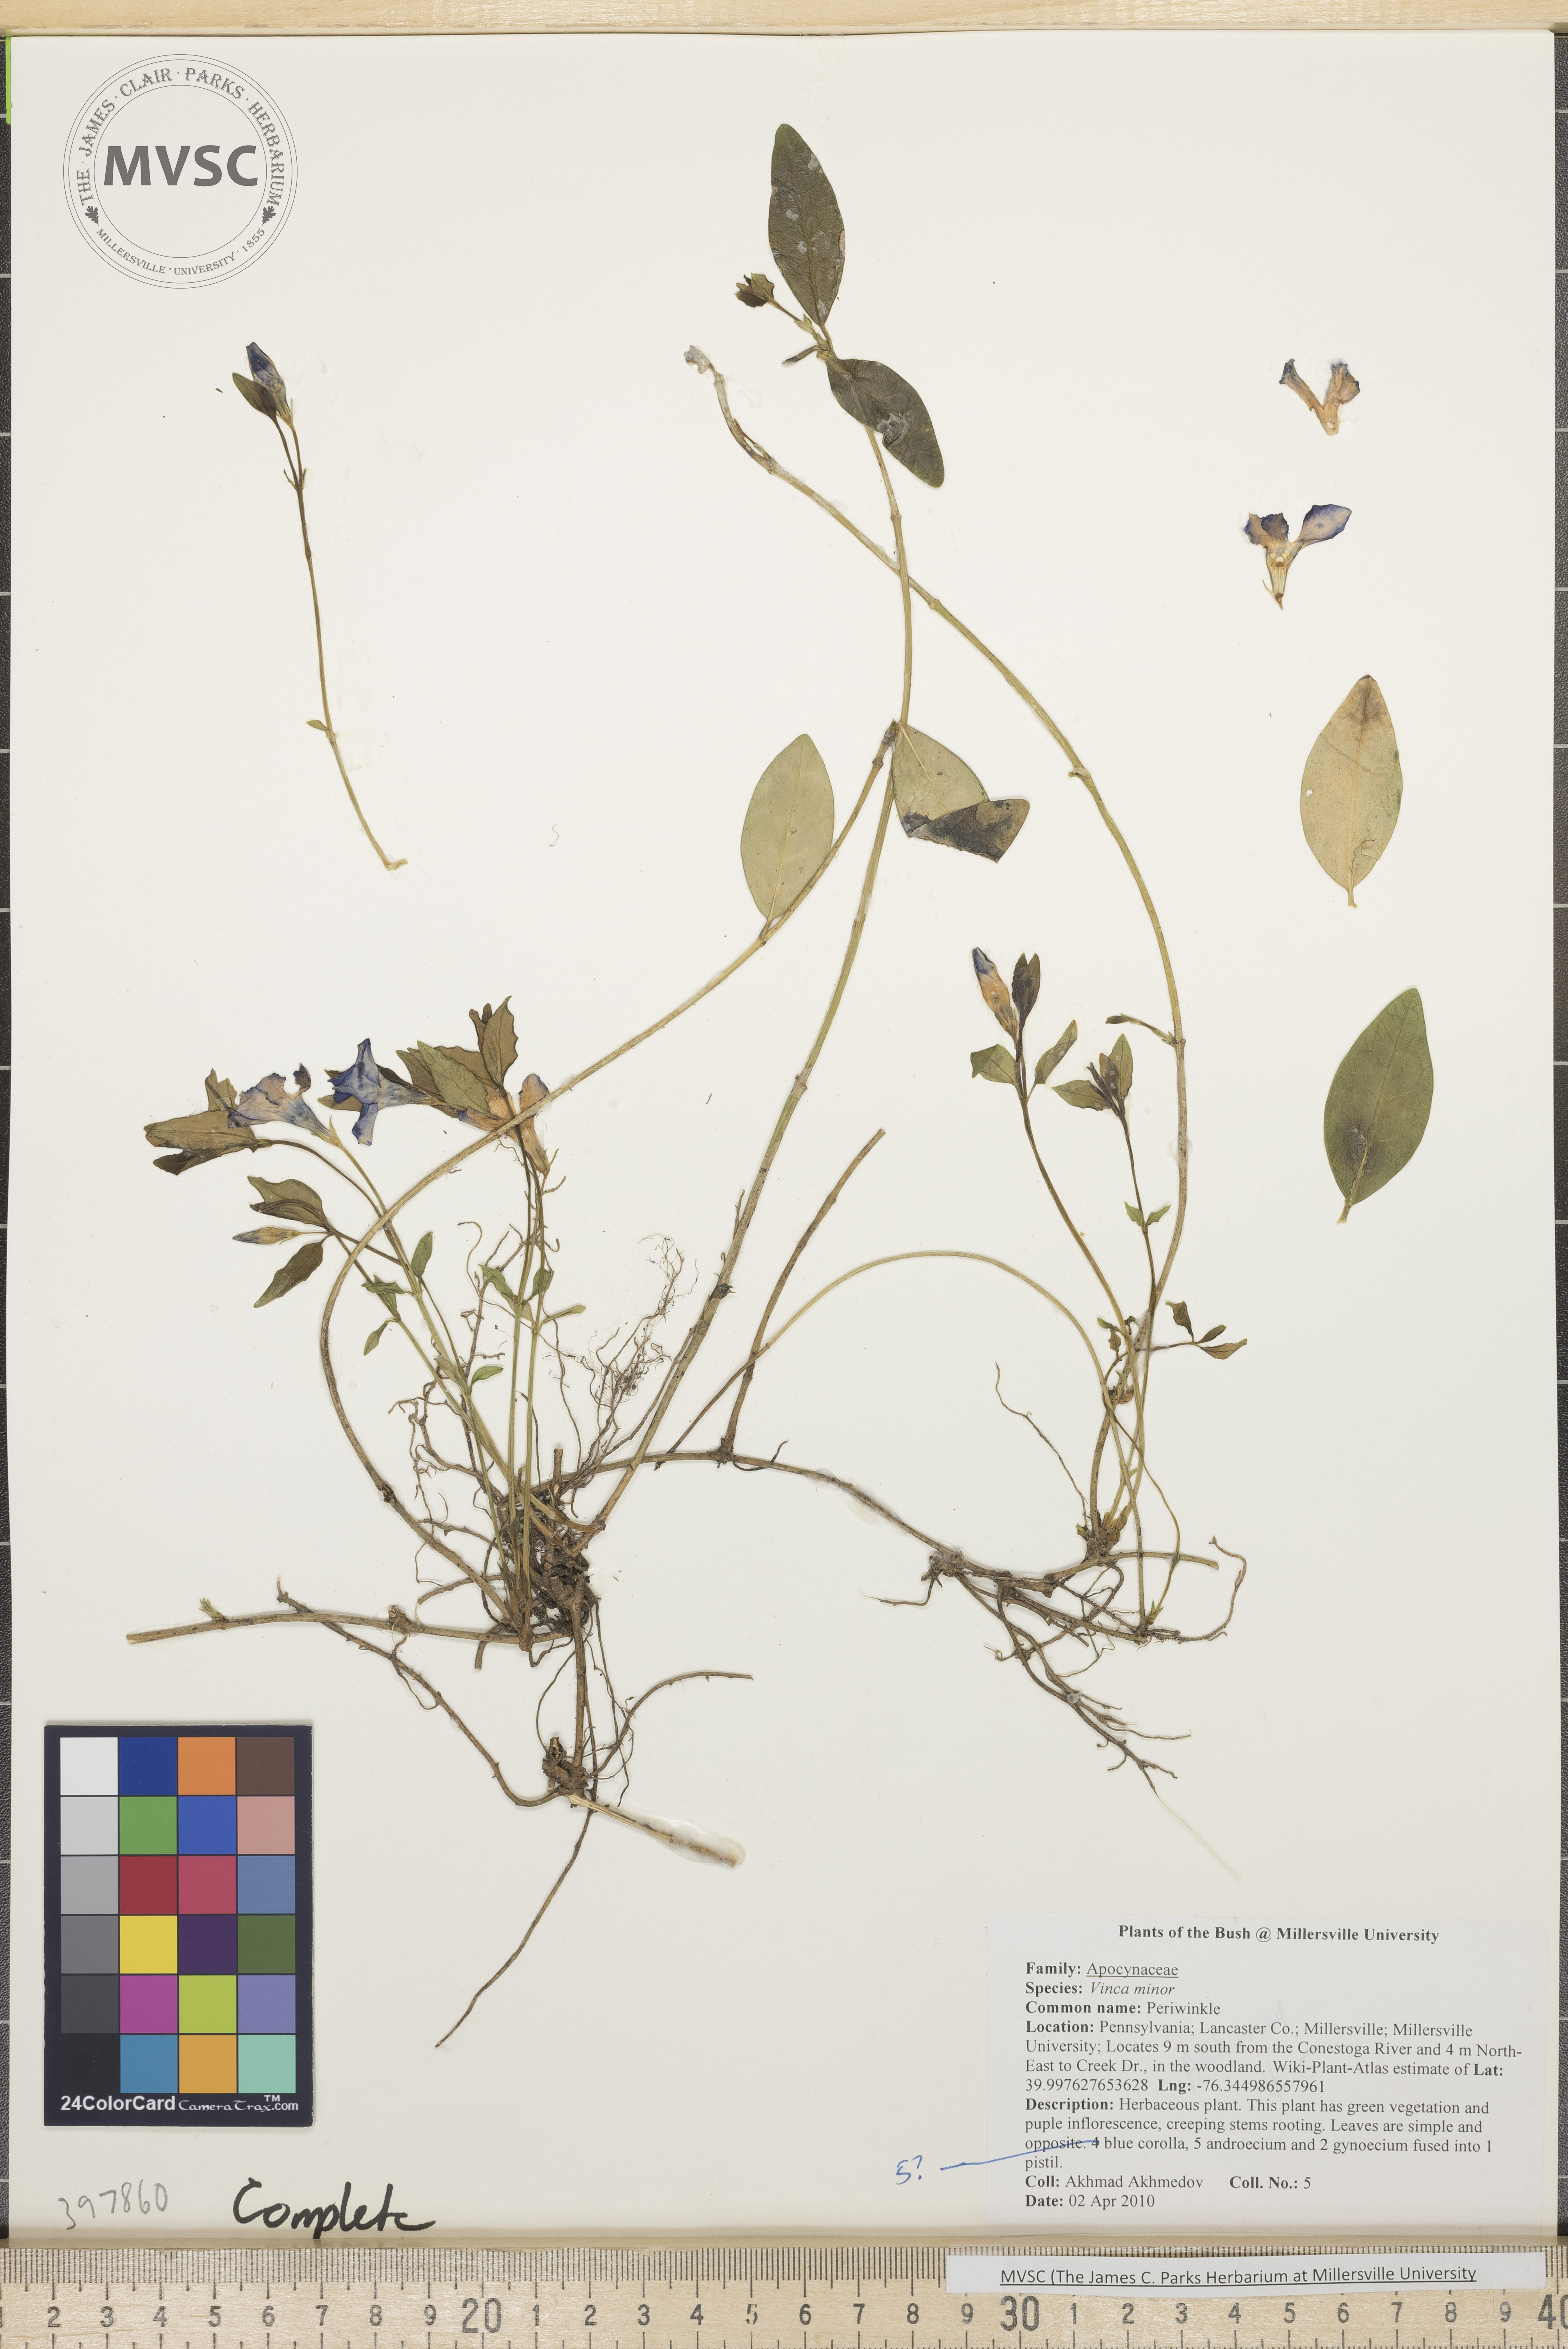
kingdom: Plantae
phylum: Tracheophyta
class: Magnoliopsida
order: Gentianales
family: Apocynaceae
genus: Vinca
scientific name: Vinca minor
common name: Common periwinkle
